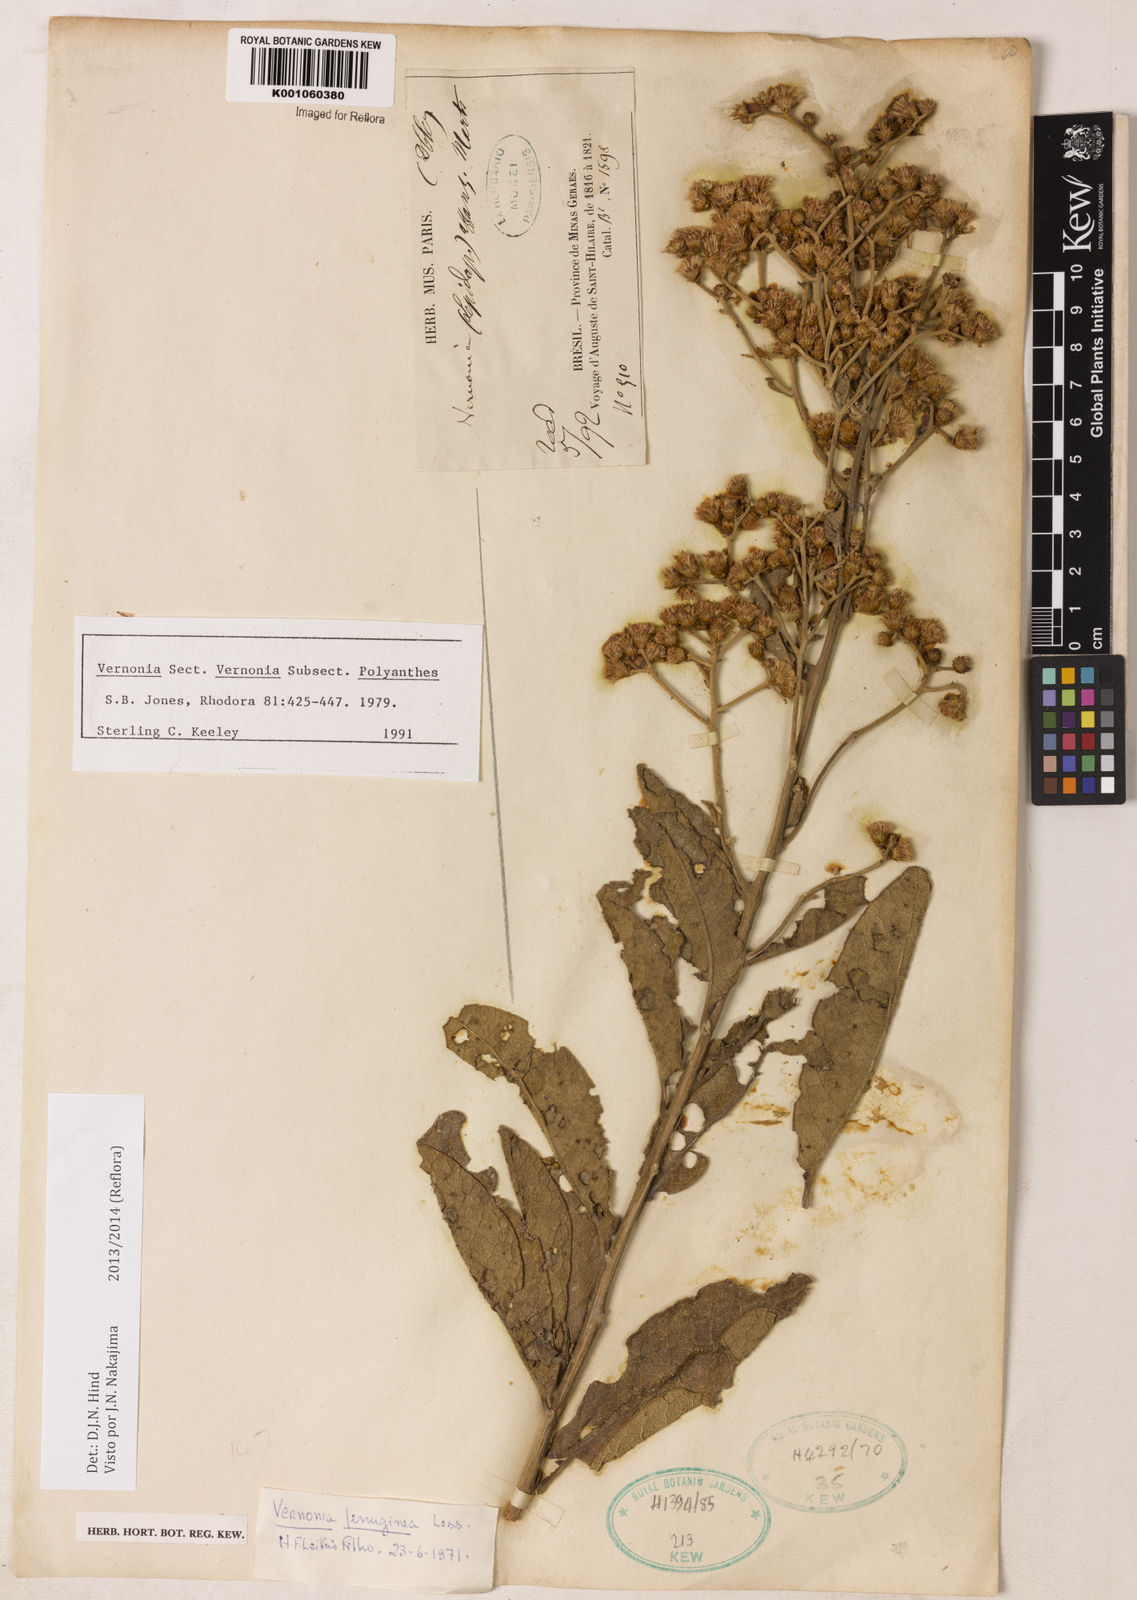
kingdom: Plantae
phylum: Tracheophyta
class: Magnoliopsida
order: Asterales
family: Asteraceae
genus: Vernonanthura
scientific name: Vernonanthura ferruginea
